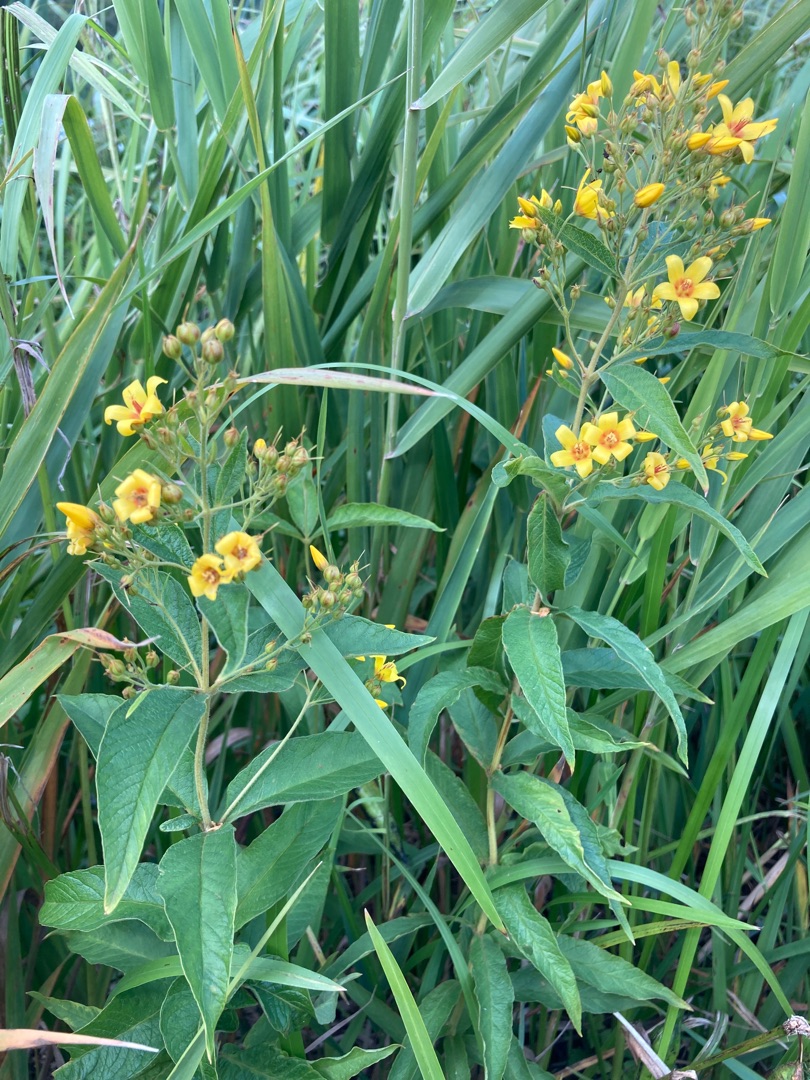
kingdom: Plantae
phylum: Tracheophyta
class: Magnoliopsida
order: Ericales
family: Primulaceae
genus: Lysimachia
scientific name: Lysimachia vulgaris
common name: Almindelig fredløs
